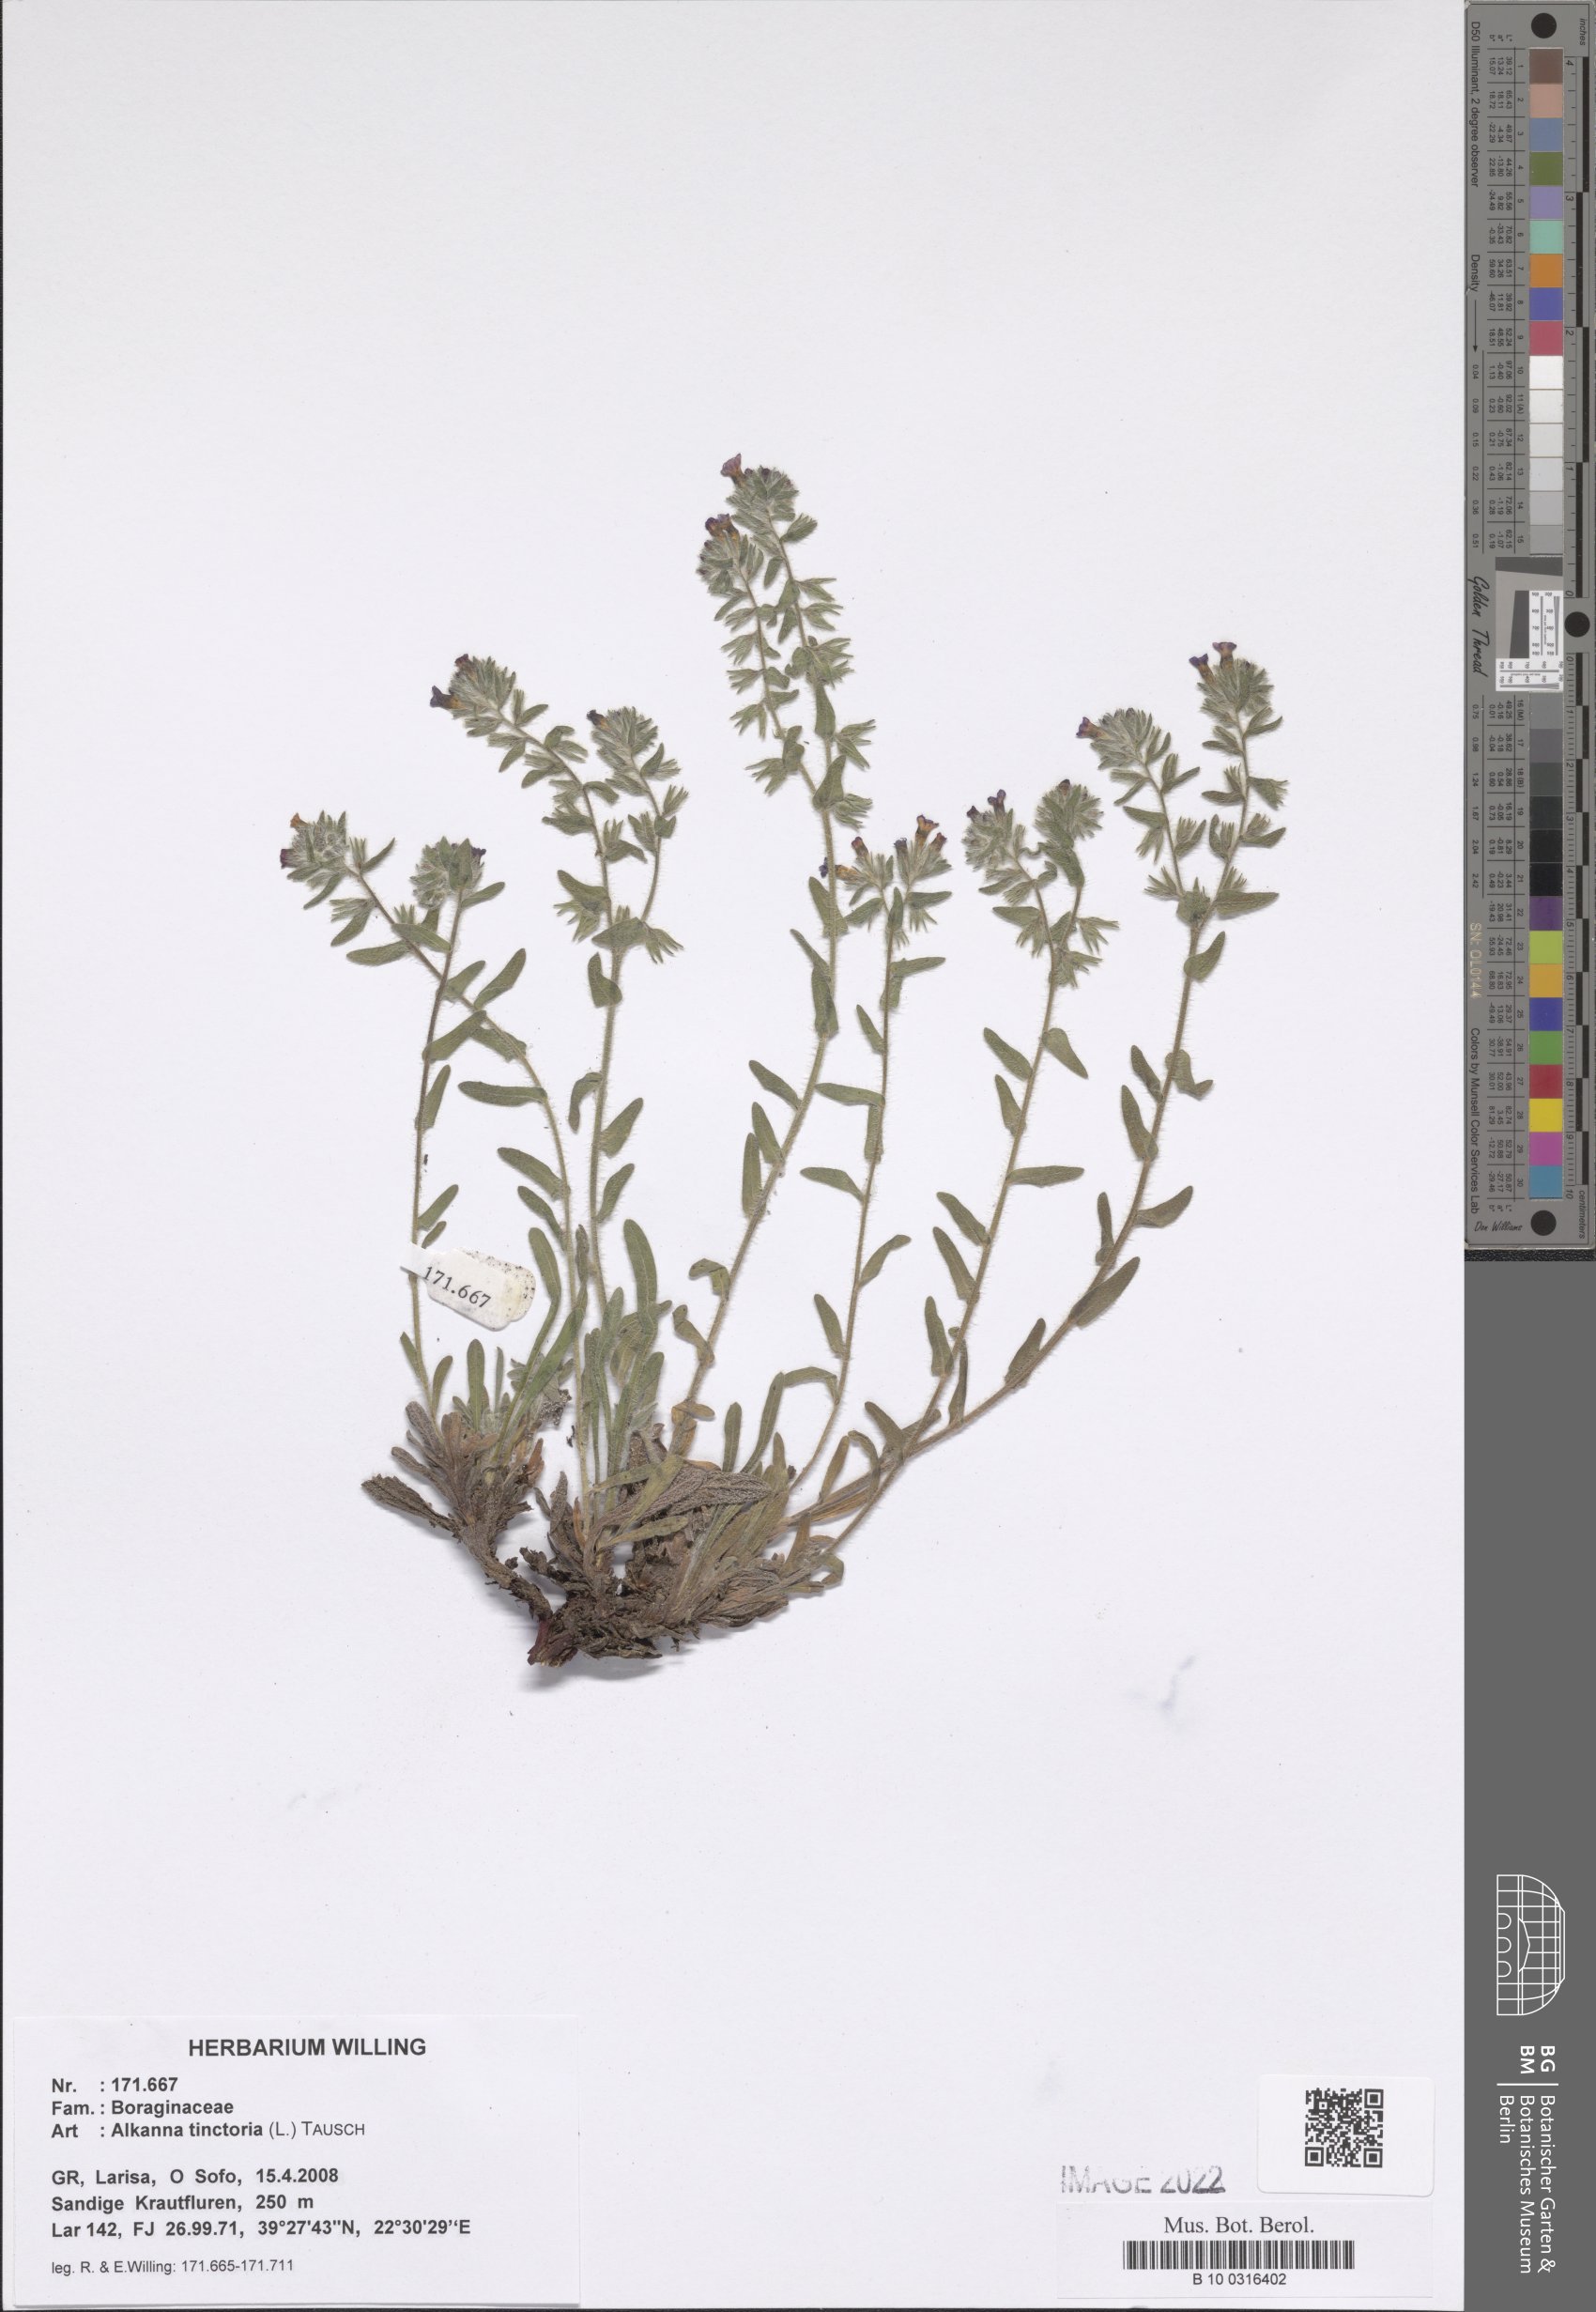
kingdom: Plantae
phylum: Tracheophyta
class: Magnoliopsida
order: Boraginales
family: Boraginaceae
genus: Alkanna
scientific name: Alkanna tinctoria
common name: Dyer's-alkanet
